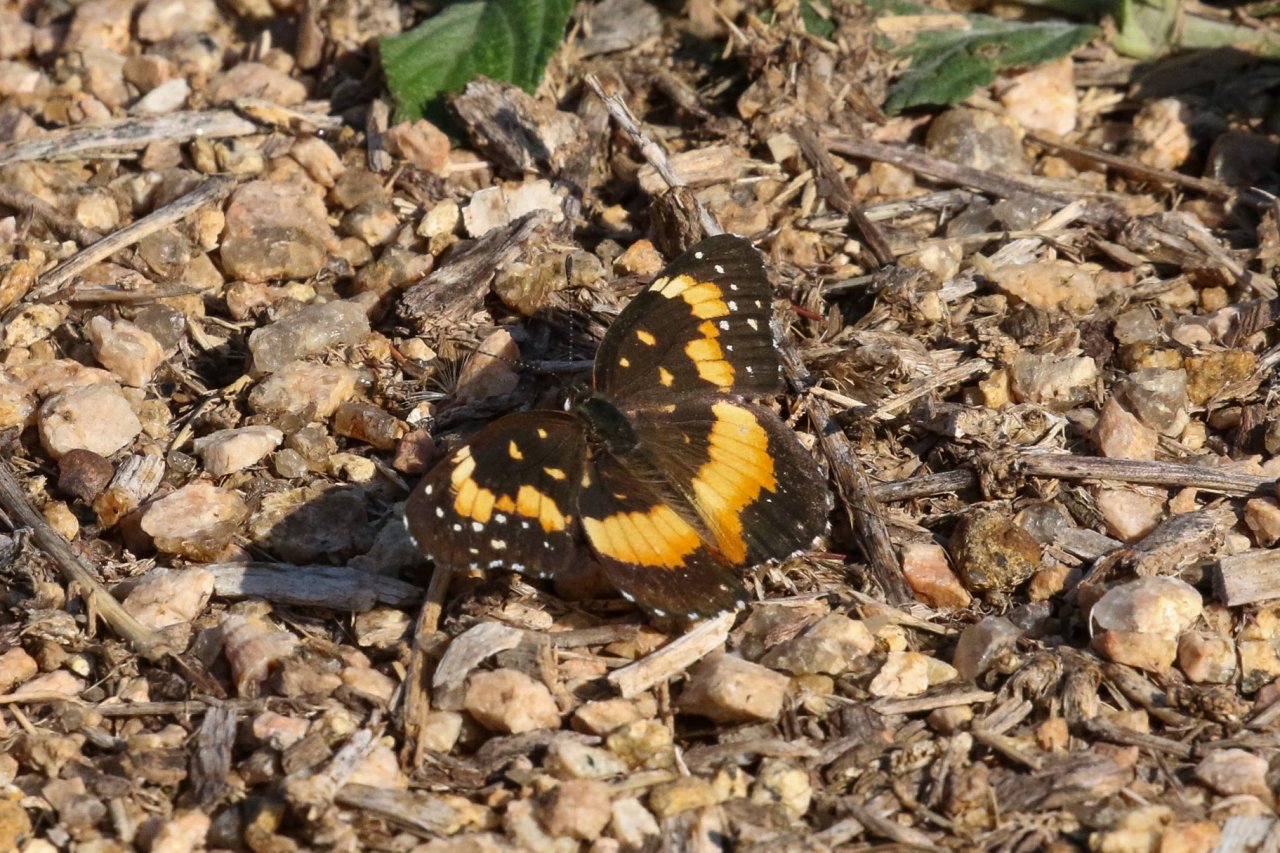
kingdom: Animalia
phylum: Arthropoda
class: Insecta
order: Lepidoptera
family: Nymphalidae
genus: Chlosyne
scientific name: Chlosyne lacinia
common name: Bordered Patch
